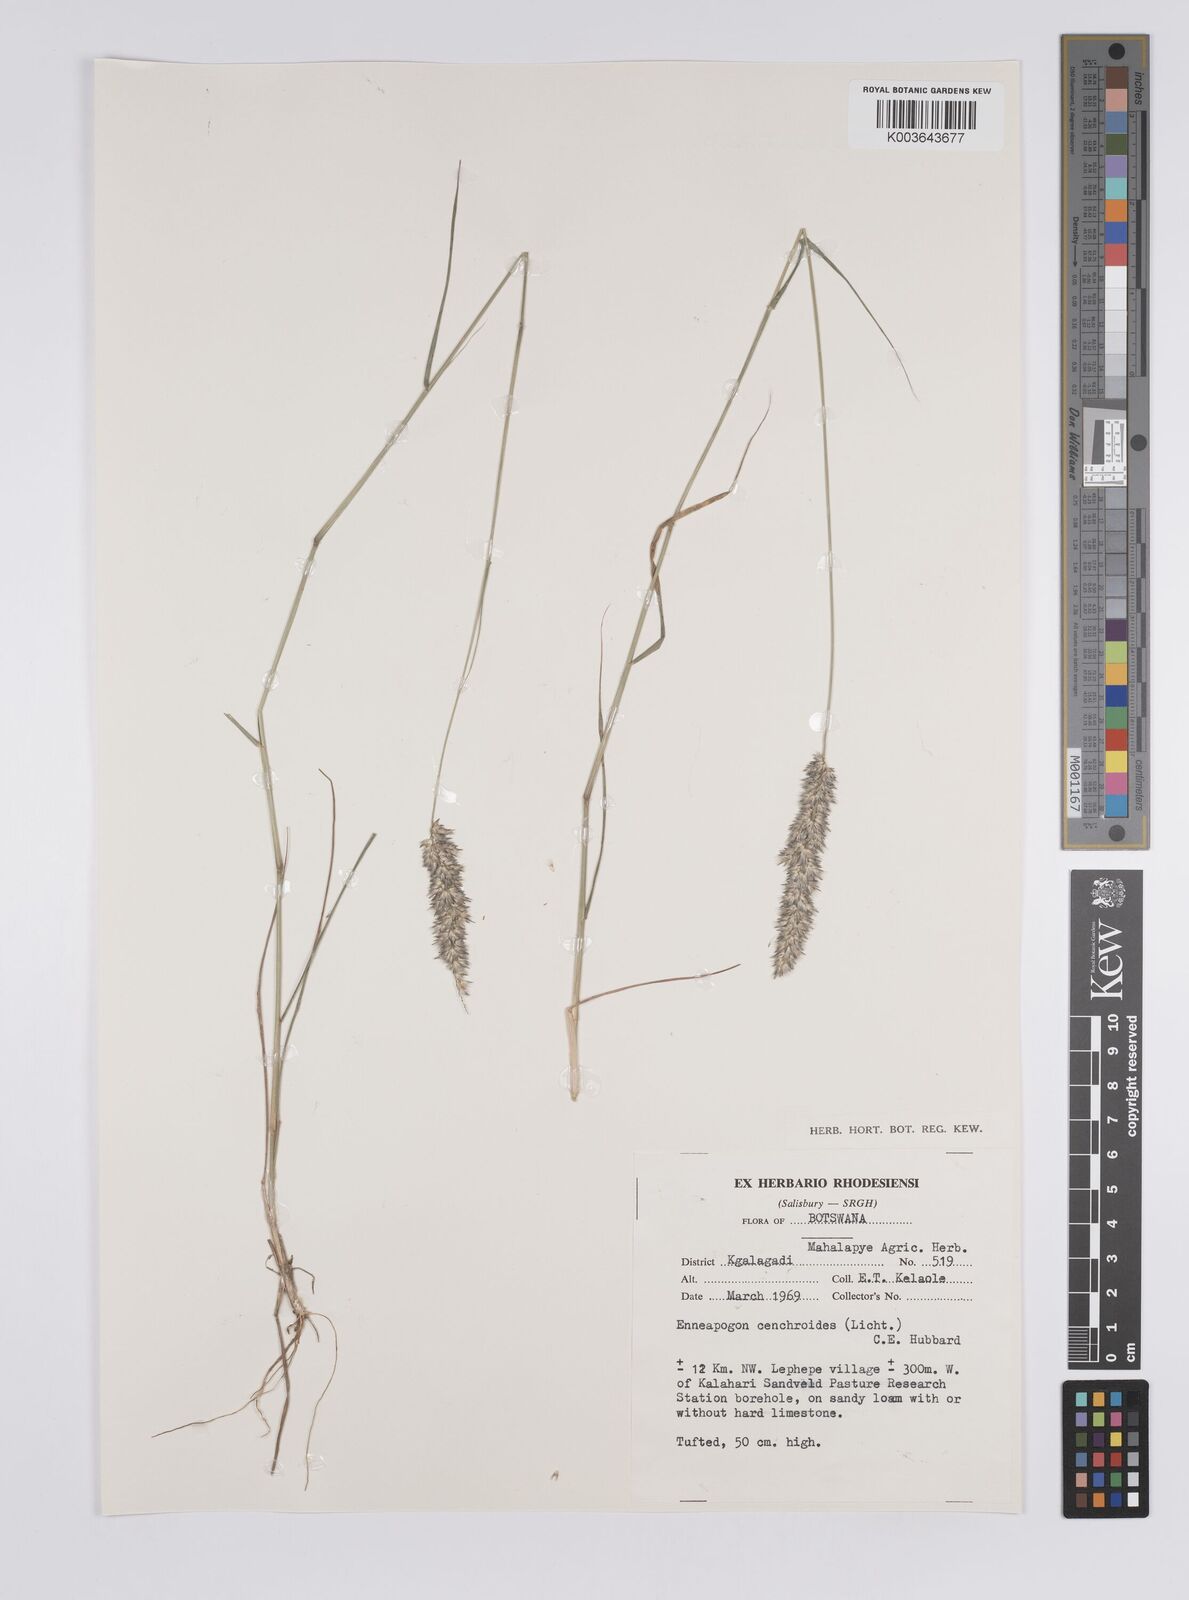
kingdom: Plantae
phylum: Tracheophyta
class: Liliopsida
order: Poales
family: Poaceae
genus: Enneapogon
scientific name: Enneapogon cenchroides
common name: Soft feather pappusgrass
